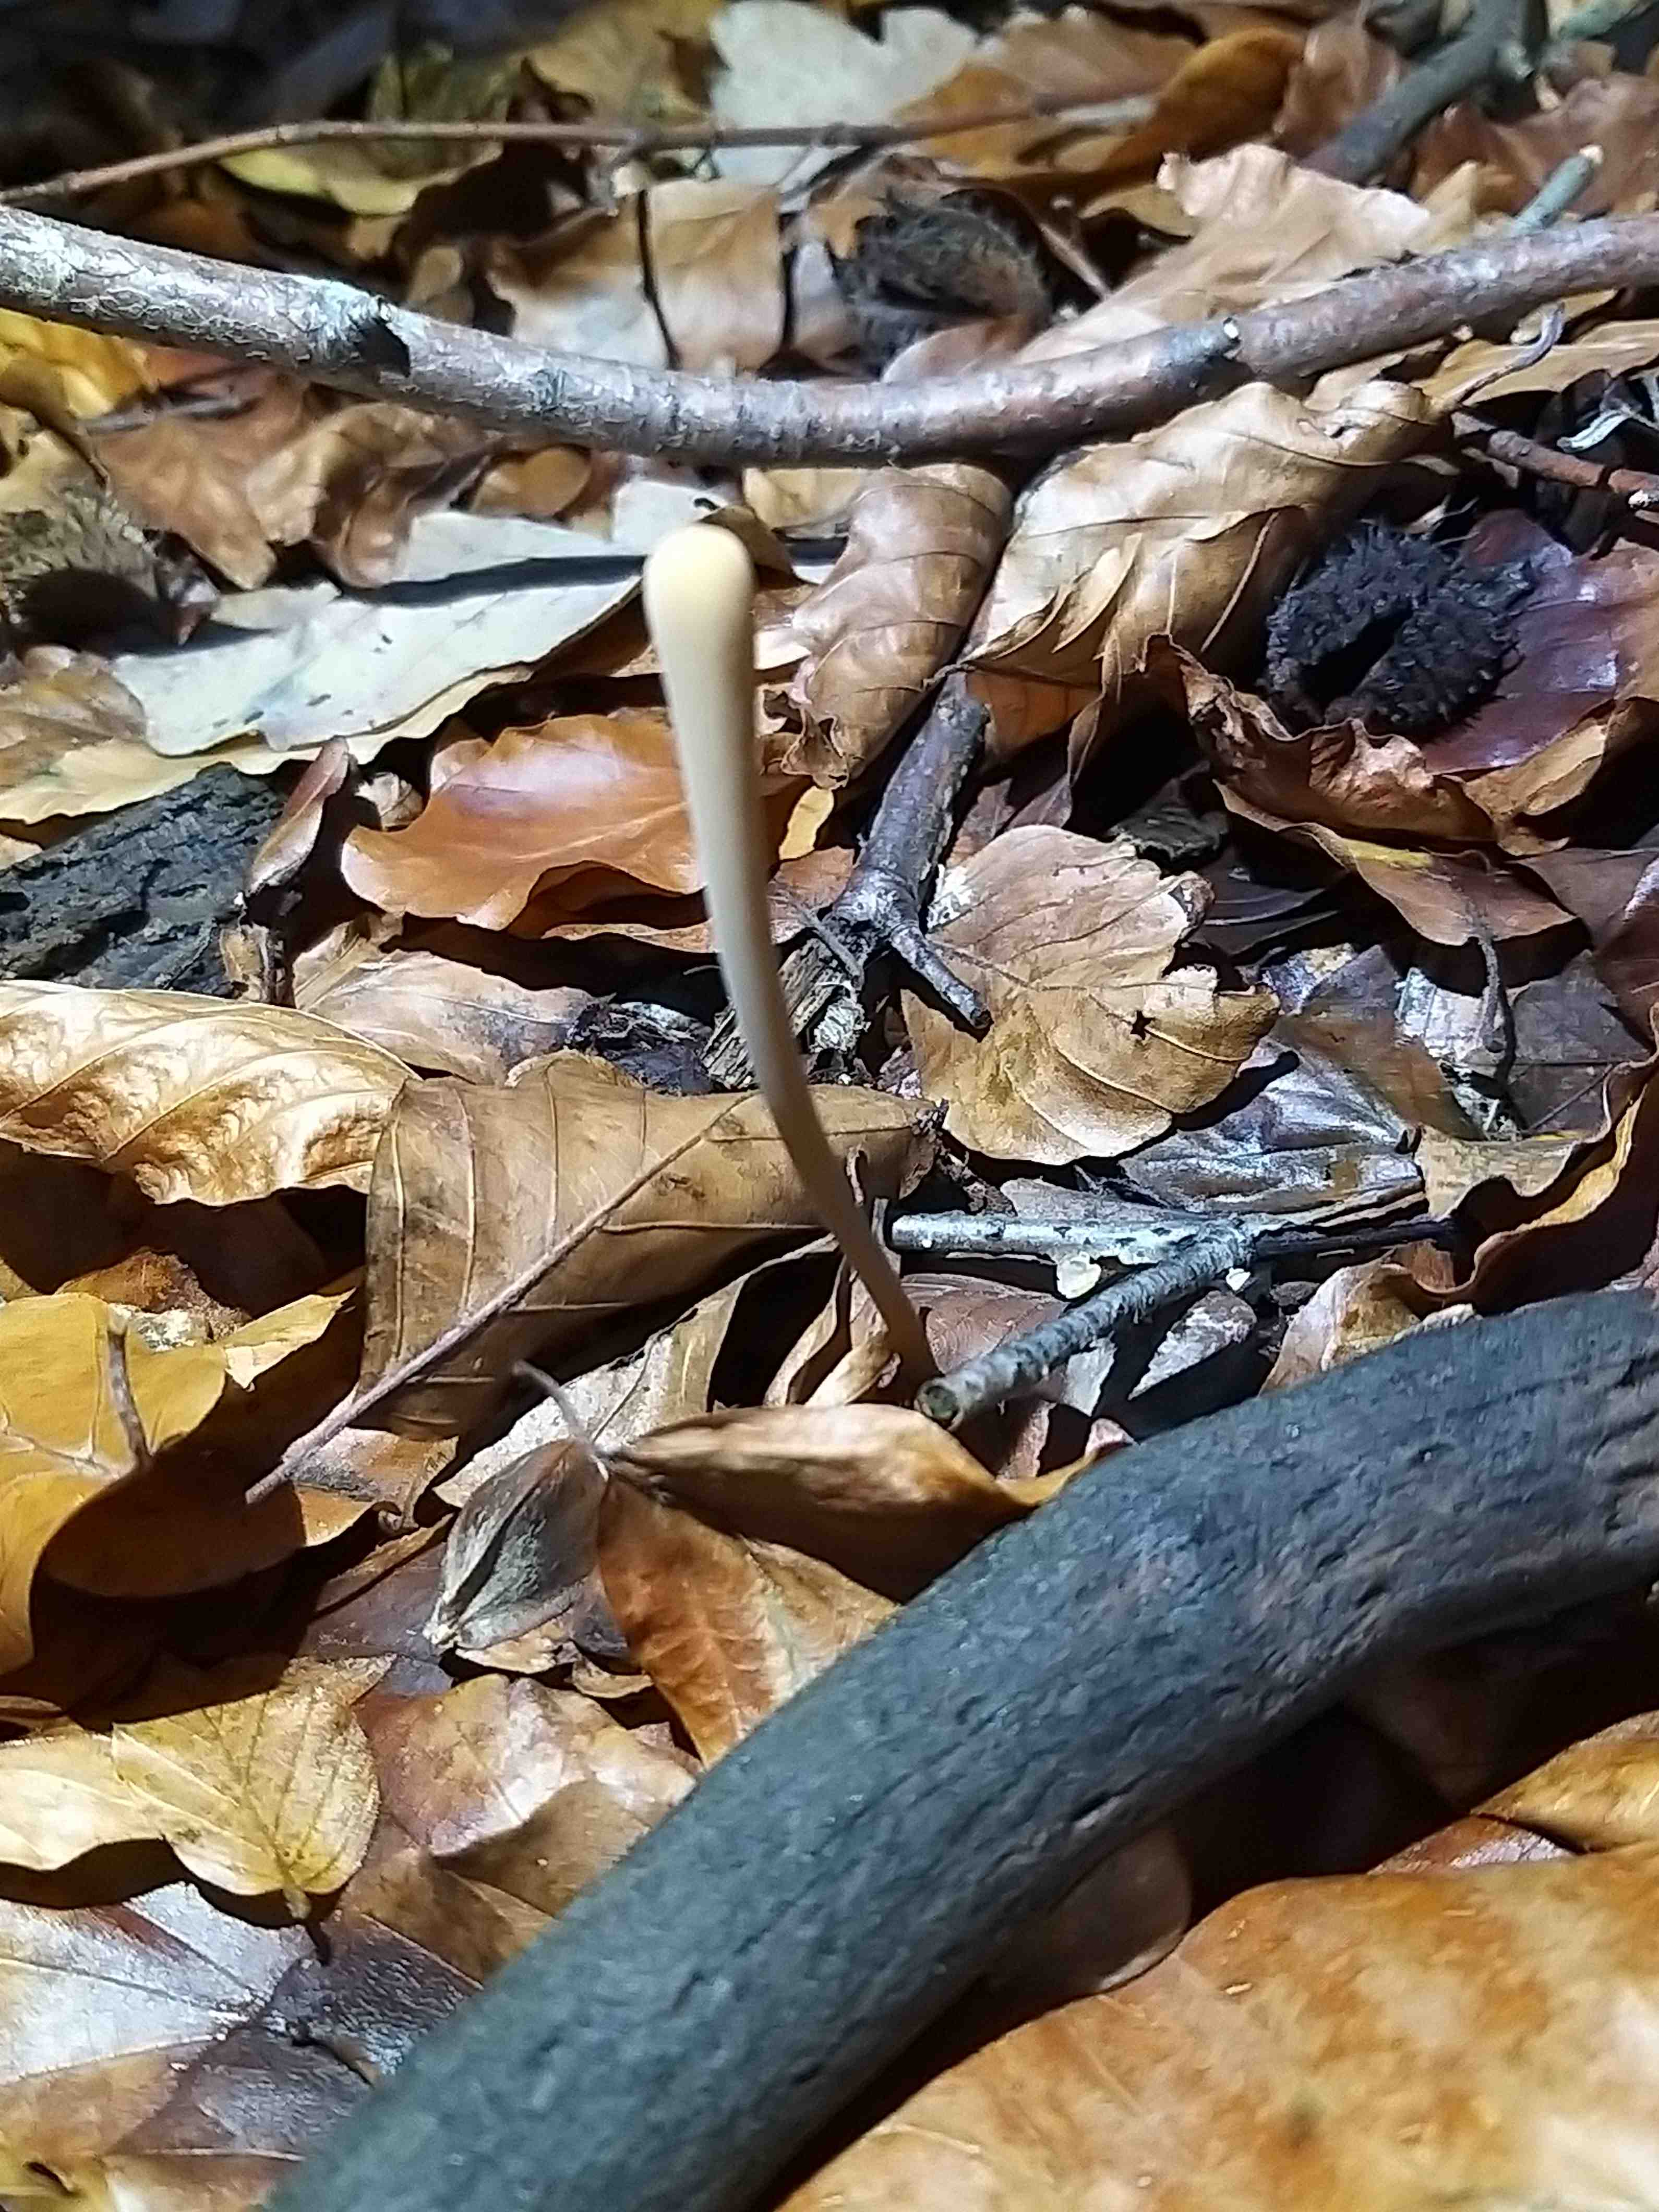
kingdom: Fungi
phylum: Basidiomycota
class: Agaricomycetes
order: Agaricales
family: Typhulaceae
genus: Typhula
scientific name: Typhula fistulosa
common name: pibet rørkølle
